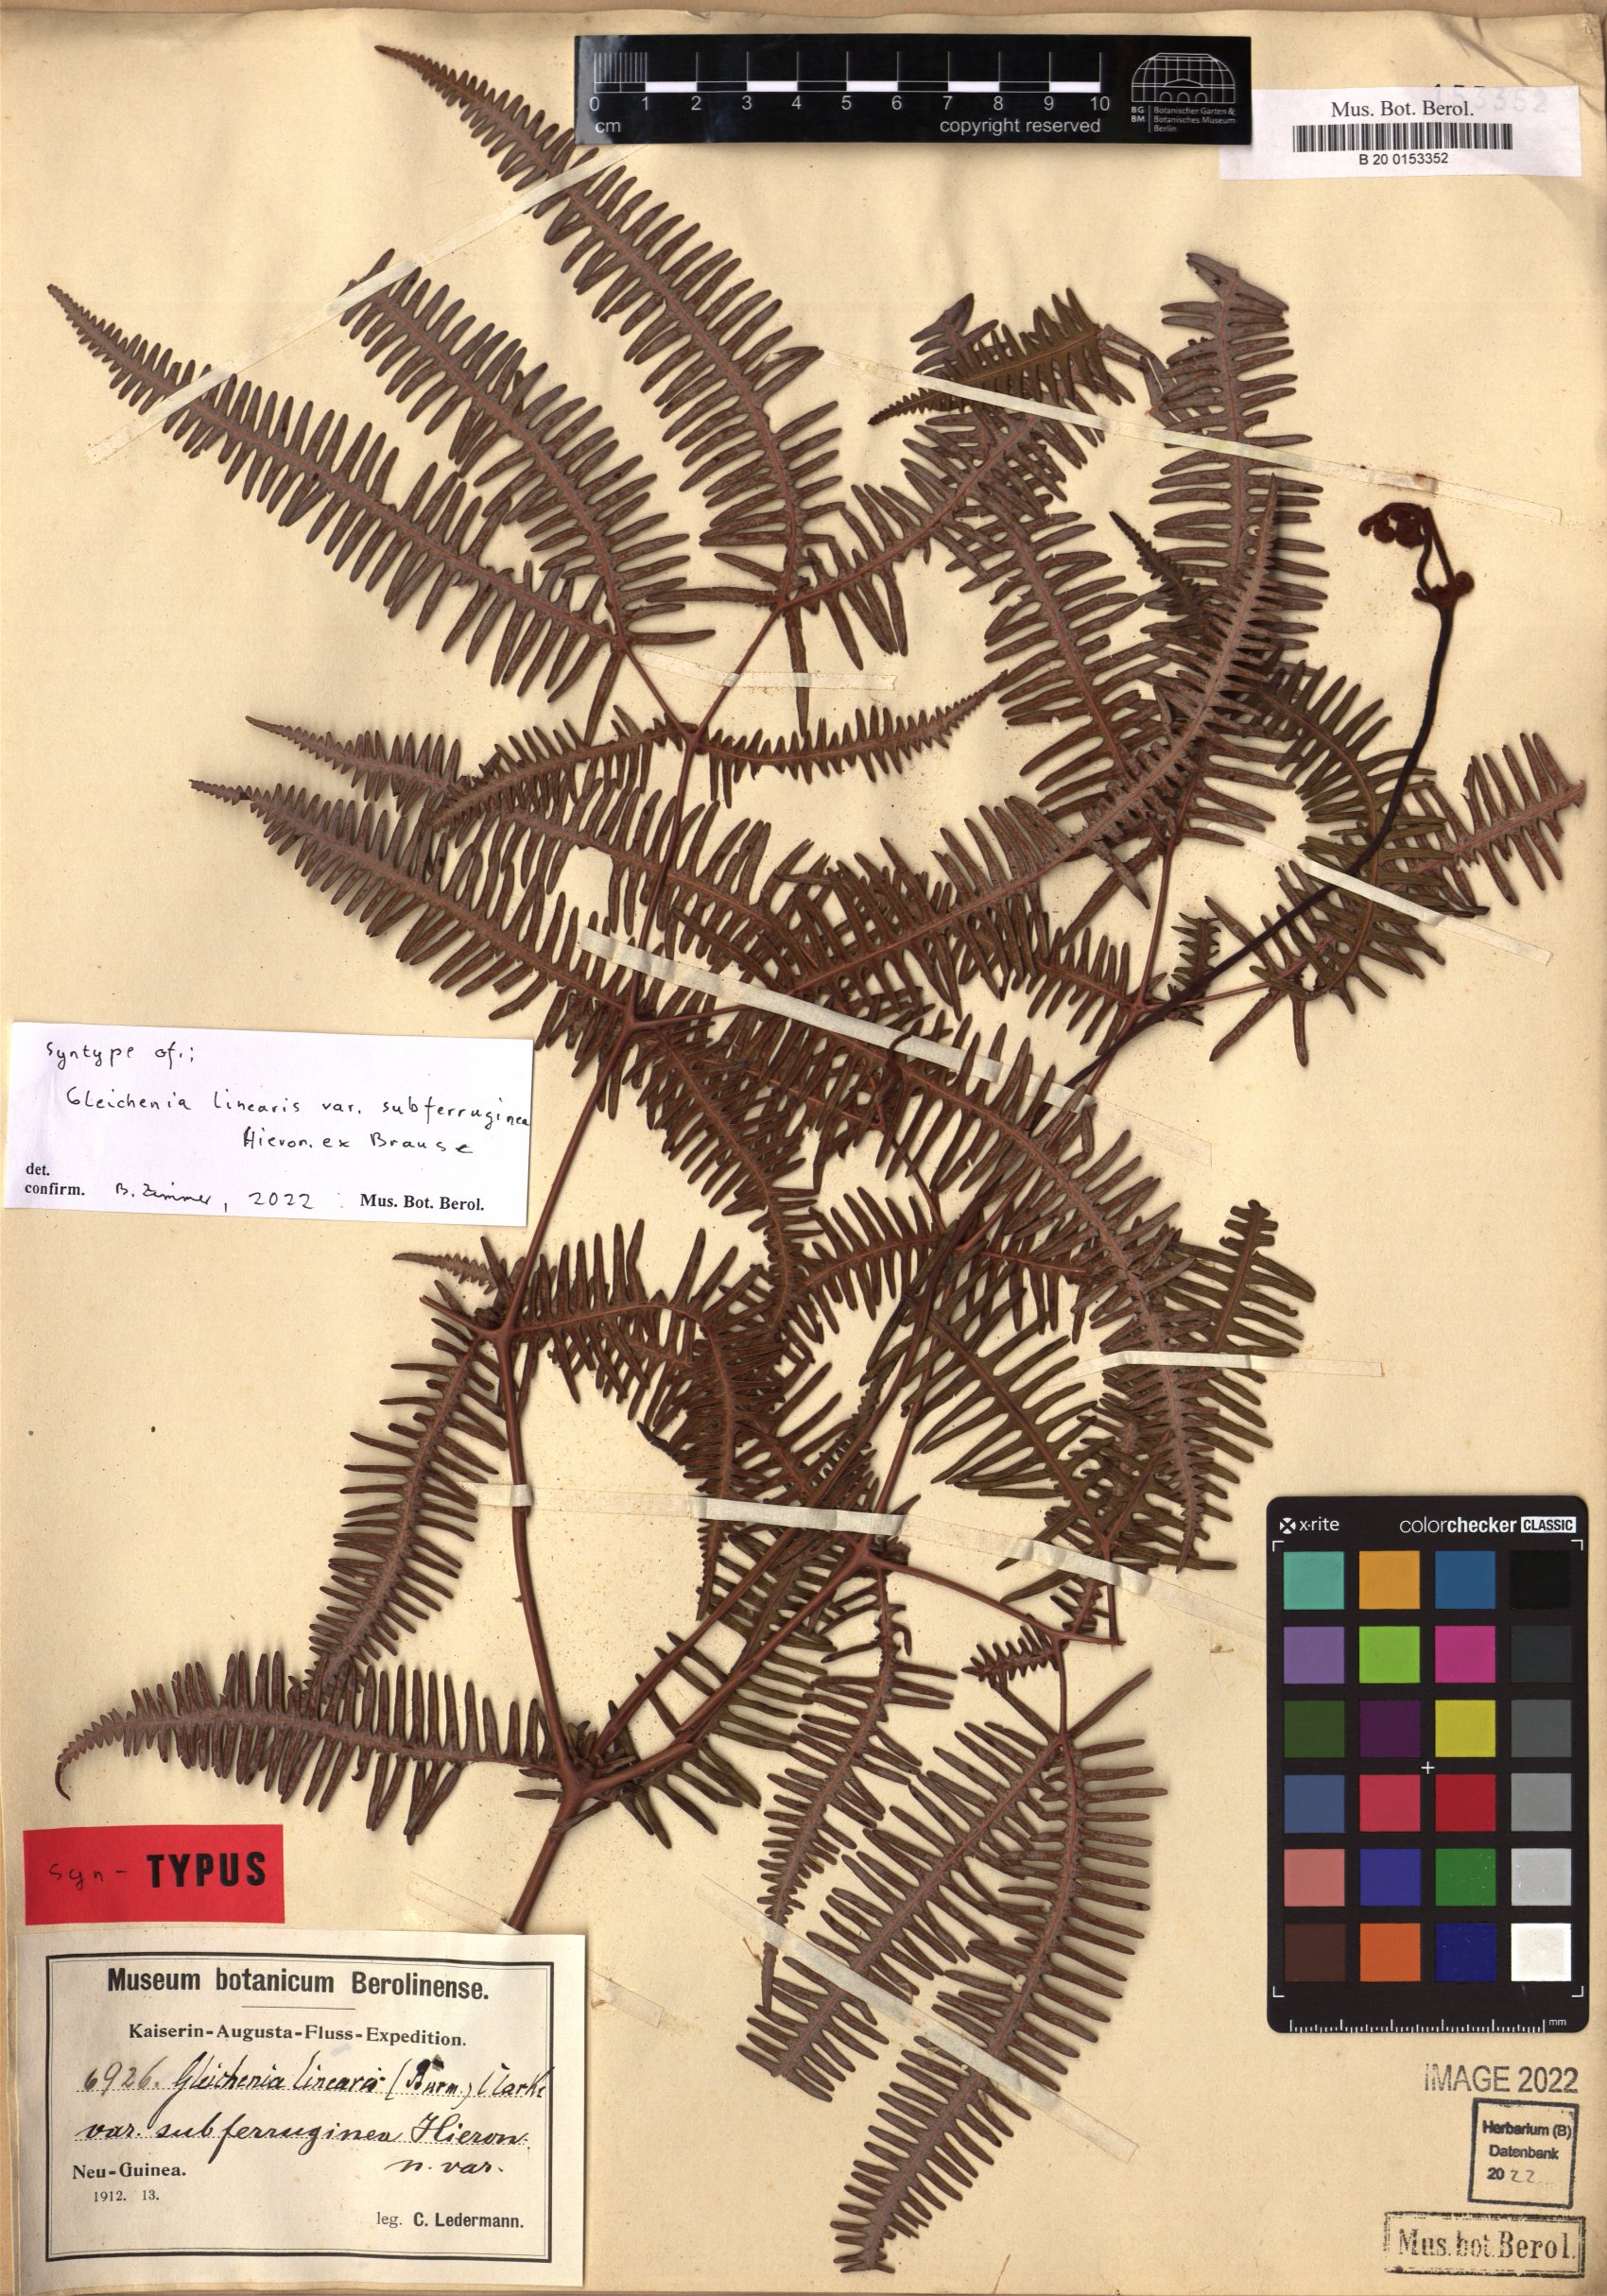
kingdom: Plantae
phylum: Tracheophyta
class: Polypodiopsida
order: Gleicheniales
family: Gleicheniaceae
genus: Dicranopteris
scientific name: Dicranopteris linearis
